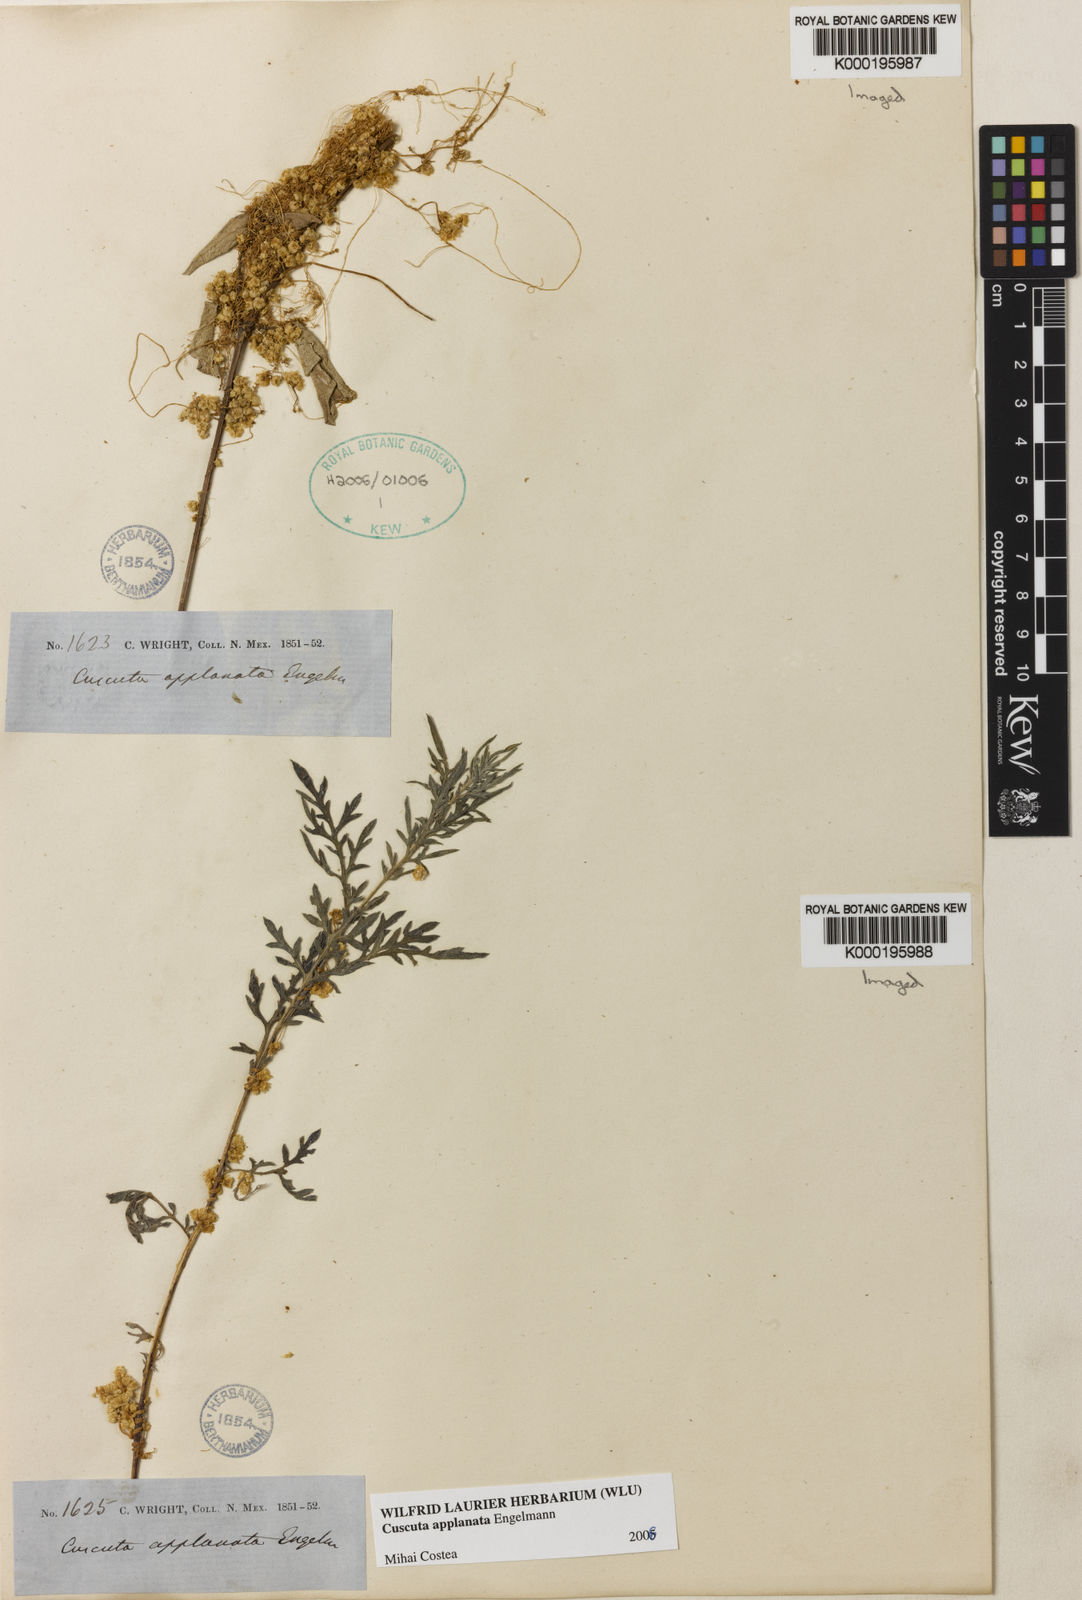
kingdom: Plantae
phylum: Tracheophyta
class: Magnoliopsida
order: Solanales
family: Convolvulaceae
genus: Cuscuta
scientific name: Cuscuta applanata
